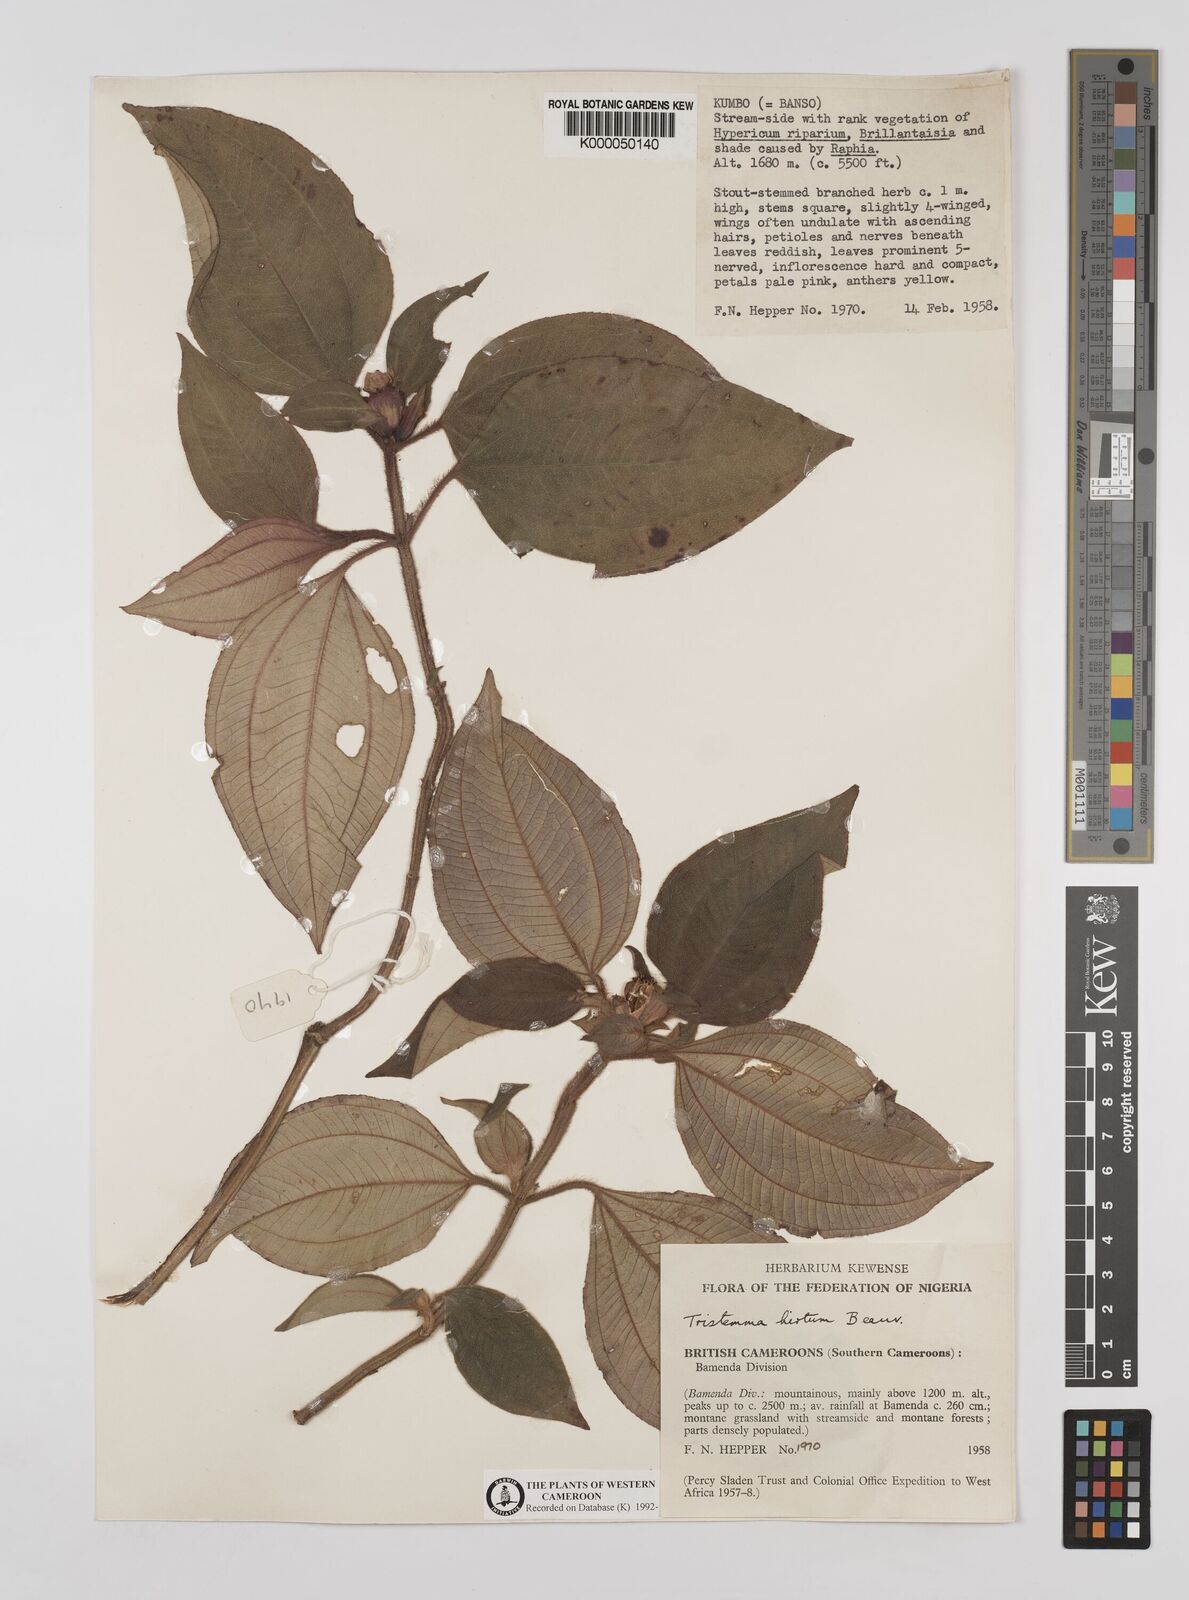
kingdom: Plantae
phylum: Tracheophyta
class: Magnoliopsida
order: Myrtales
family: Melastomataceae
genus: Tristemma
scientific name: Tristemma
